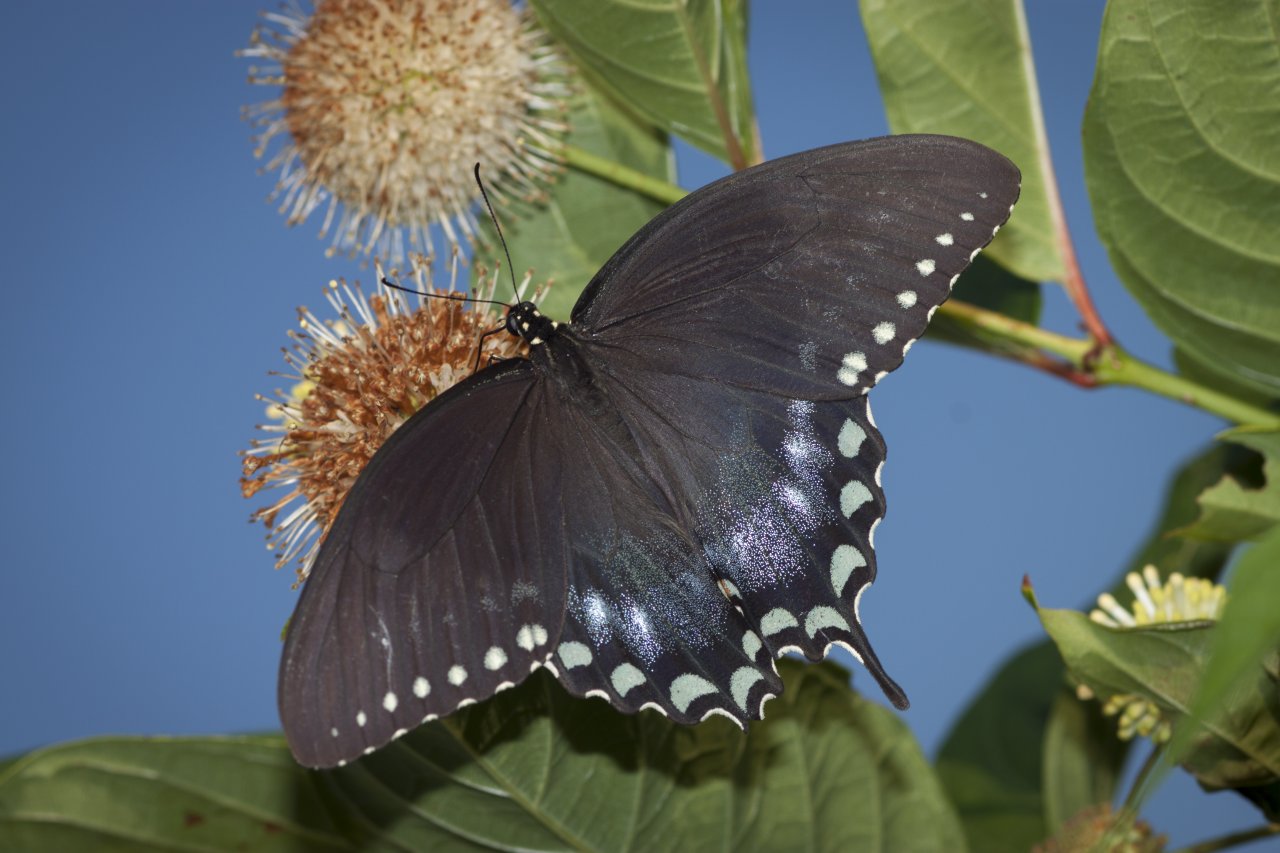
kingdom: Animalia
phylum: Arthropoda
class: Insecta
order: Lepidoptera
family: Papilionidae
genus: Pterourus
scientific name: Pterourus troilus
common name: Spicebush Swallowtail
